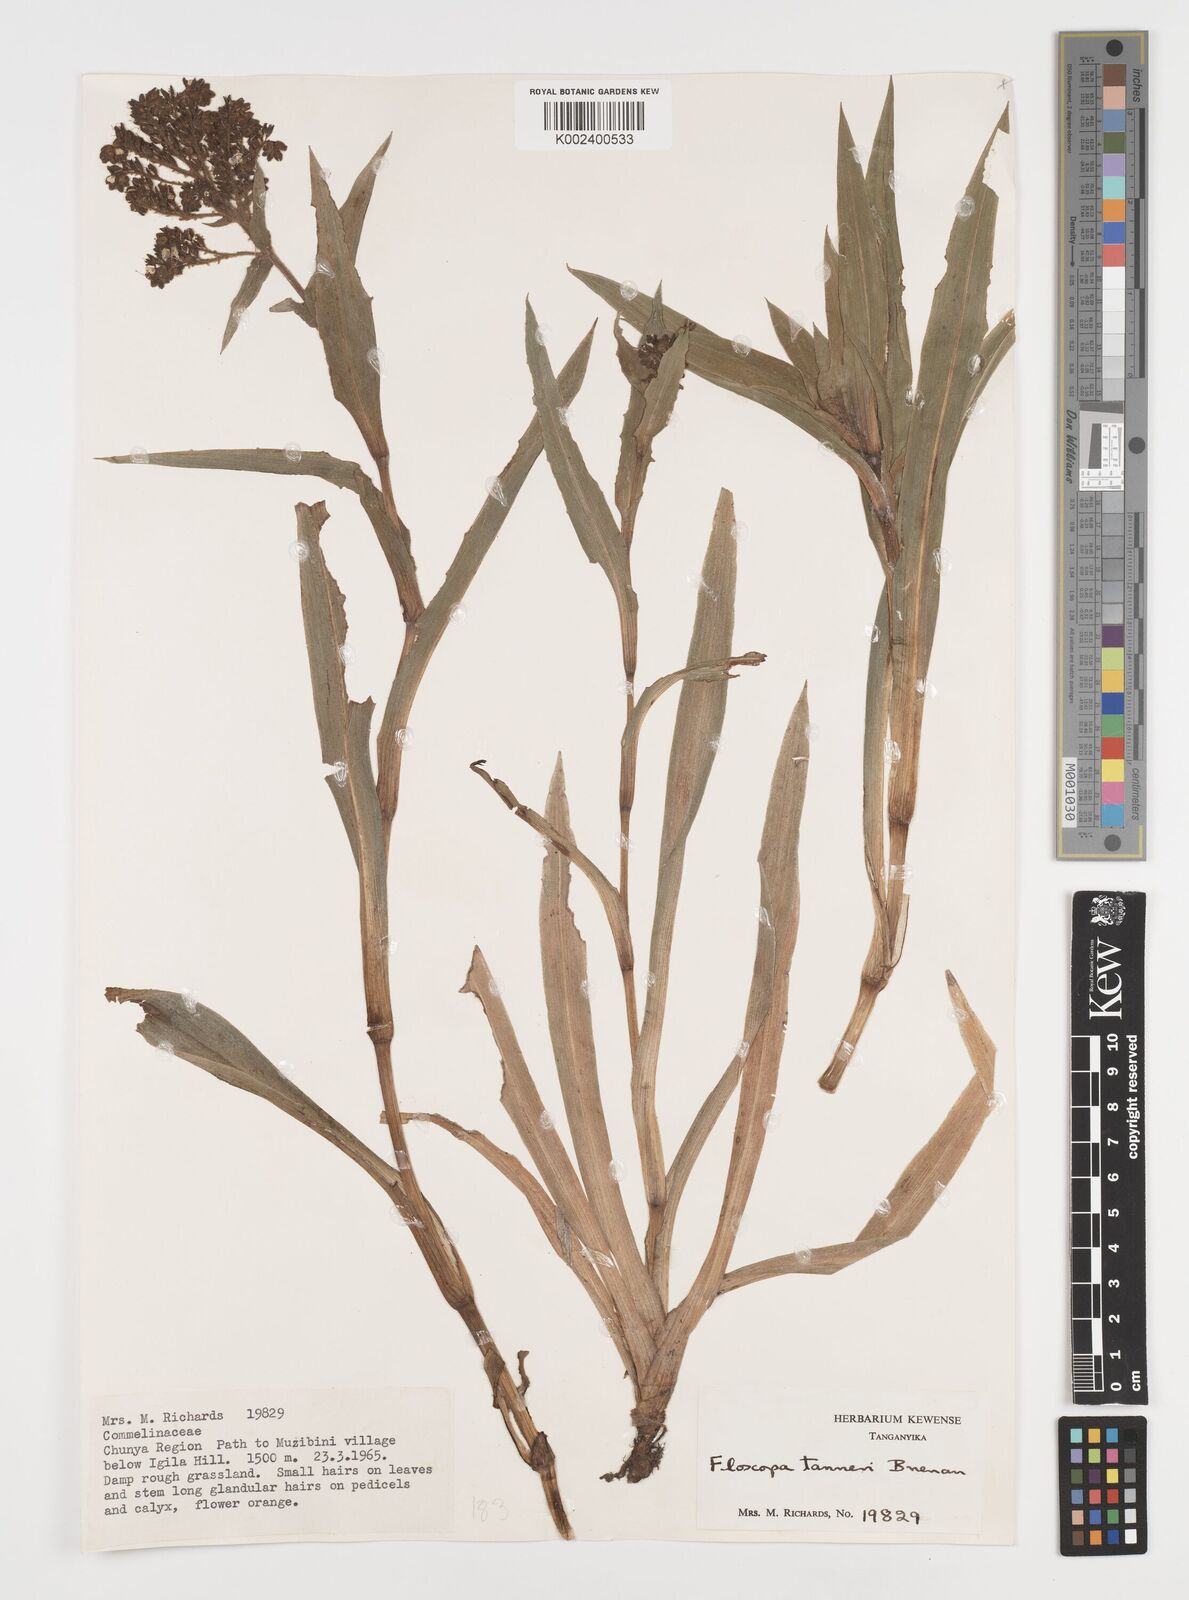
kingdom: Plantae
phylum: Tracheophyta
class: Liliopsida
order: Commelinales
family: Commelinaceae
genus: Floscopa
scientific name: Floscopa tanneri
